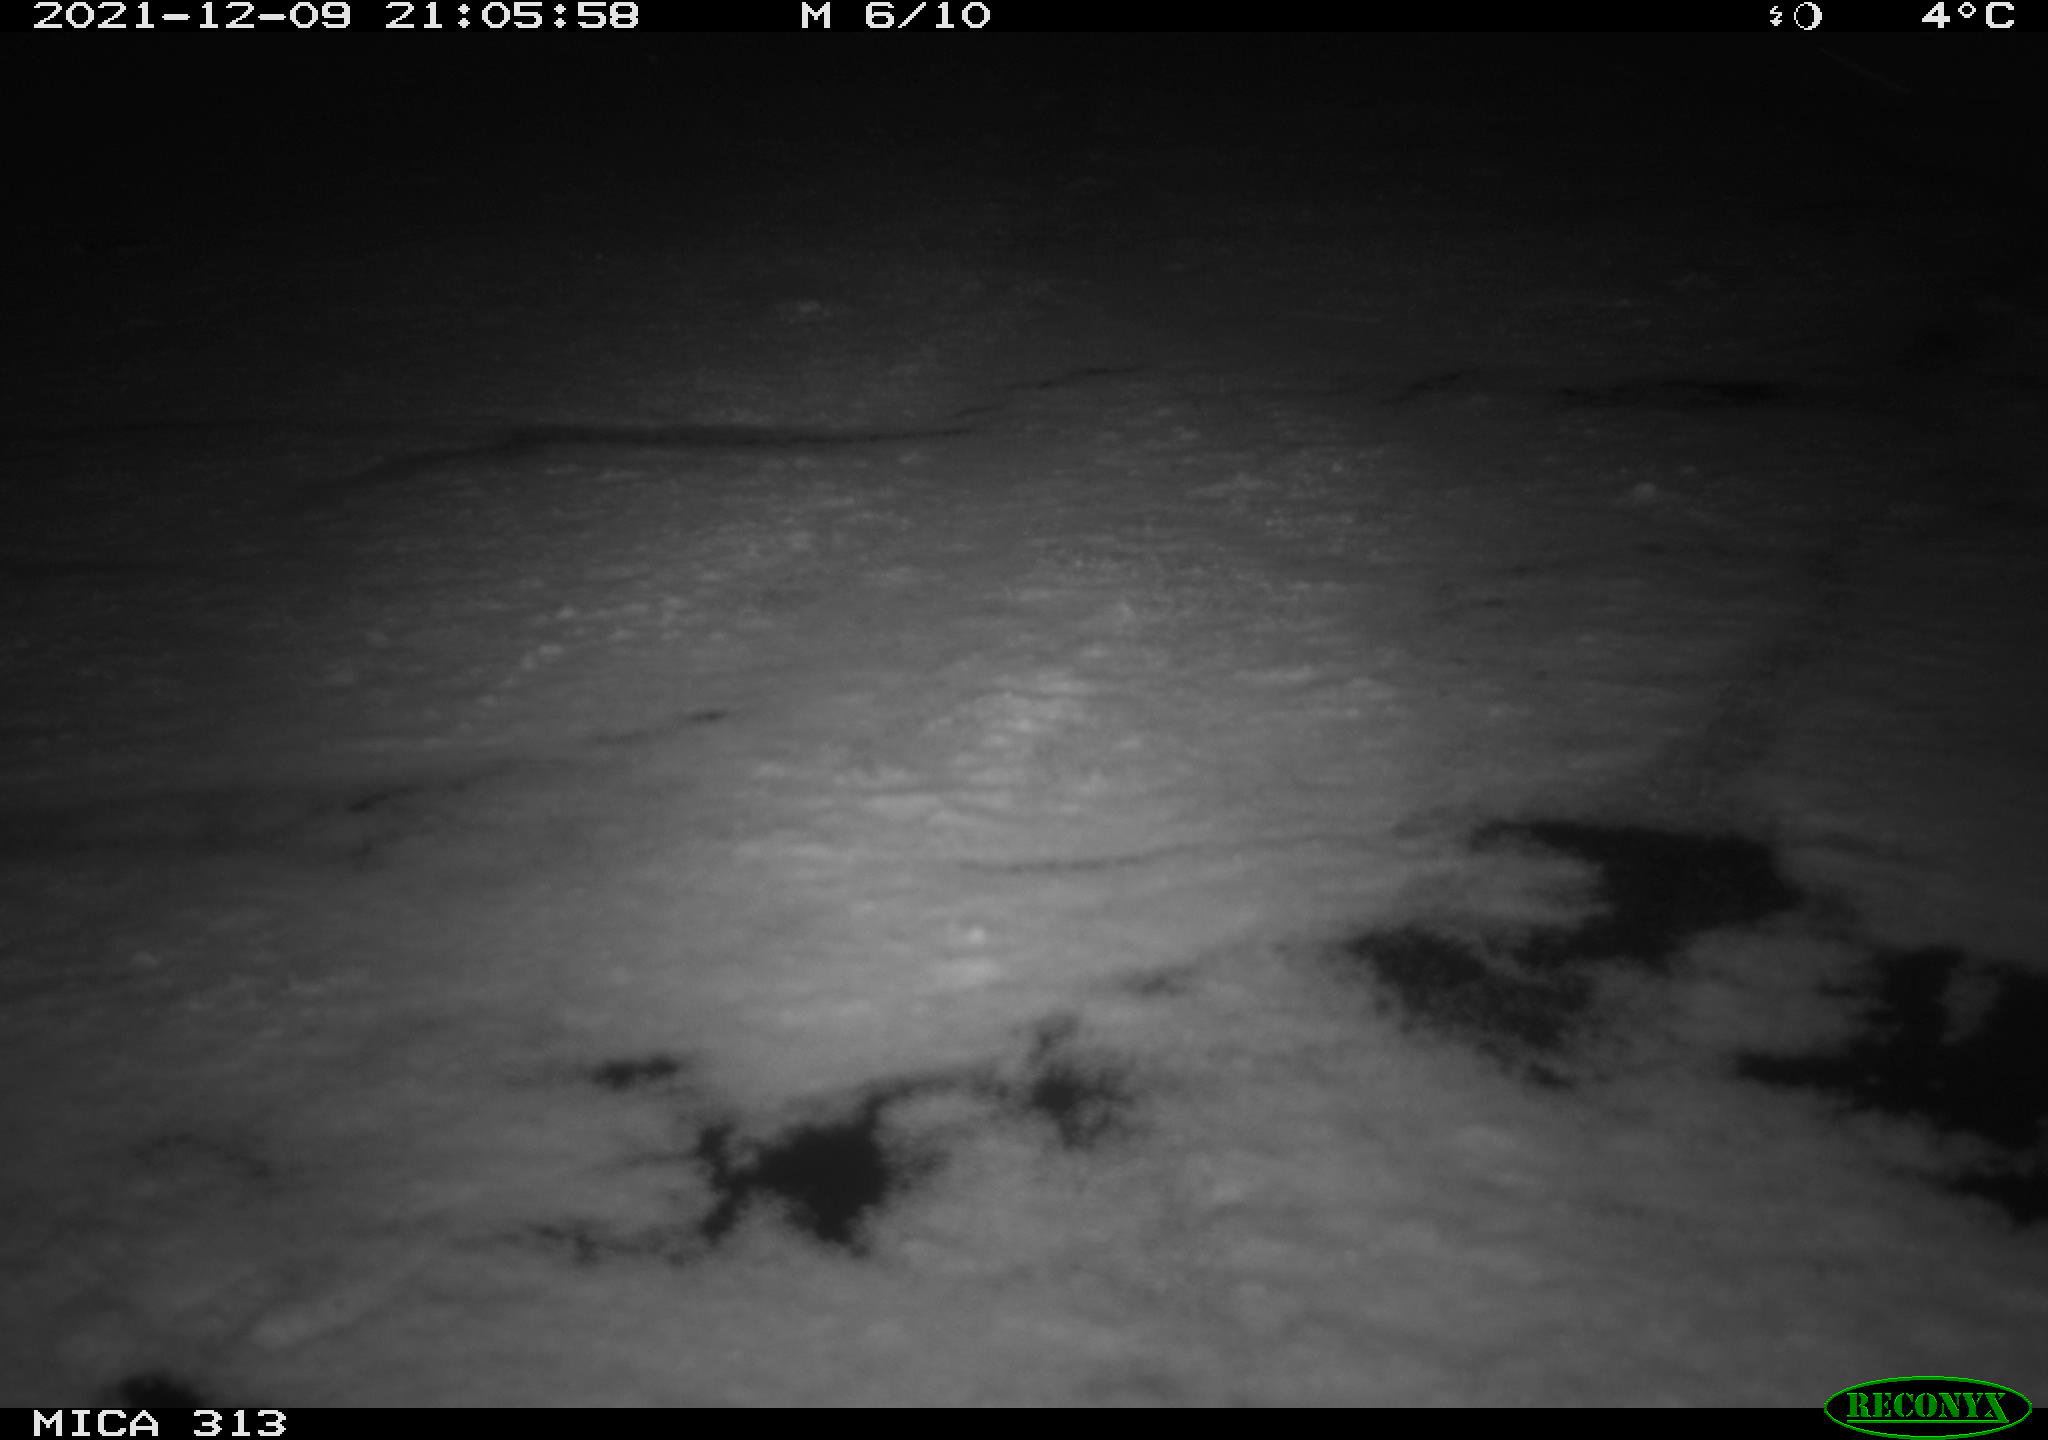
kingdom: Animalia
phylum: Chordata
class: Aves
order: Gruiformes
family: Rallidae
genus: Fulica
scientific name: Fulica atra
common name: Eurasian coot
